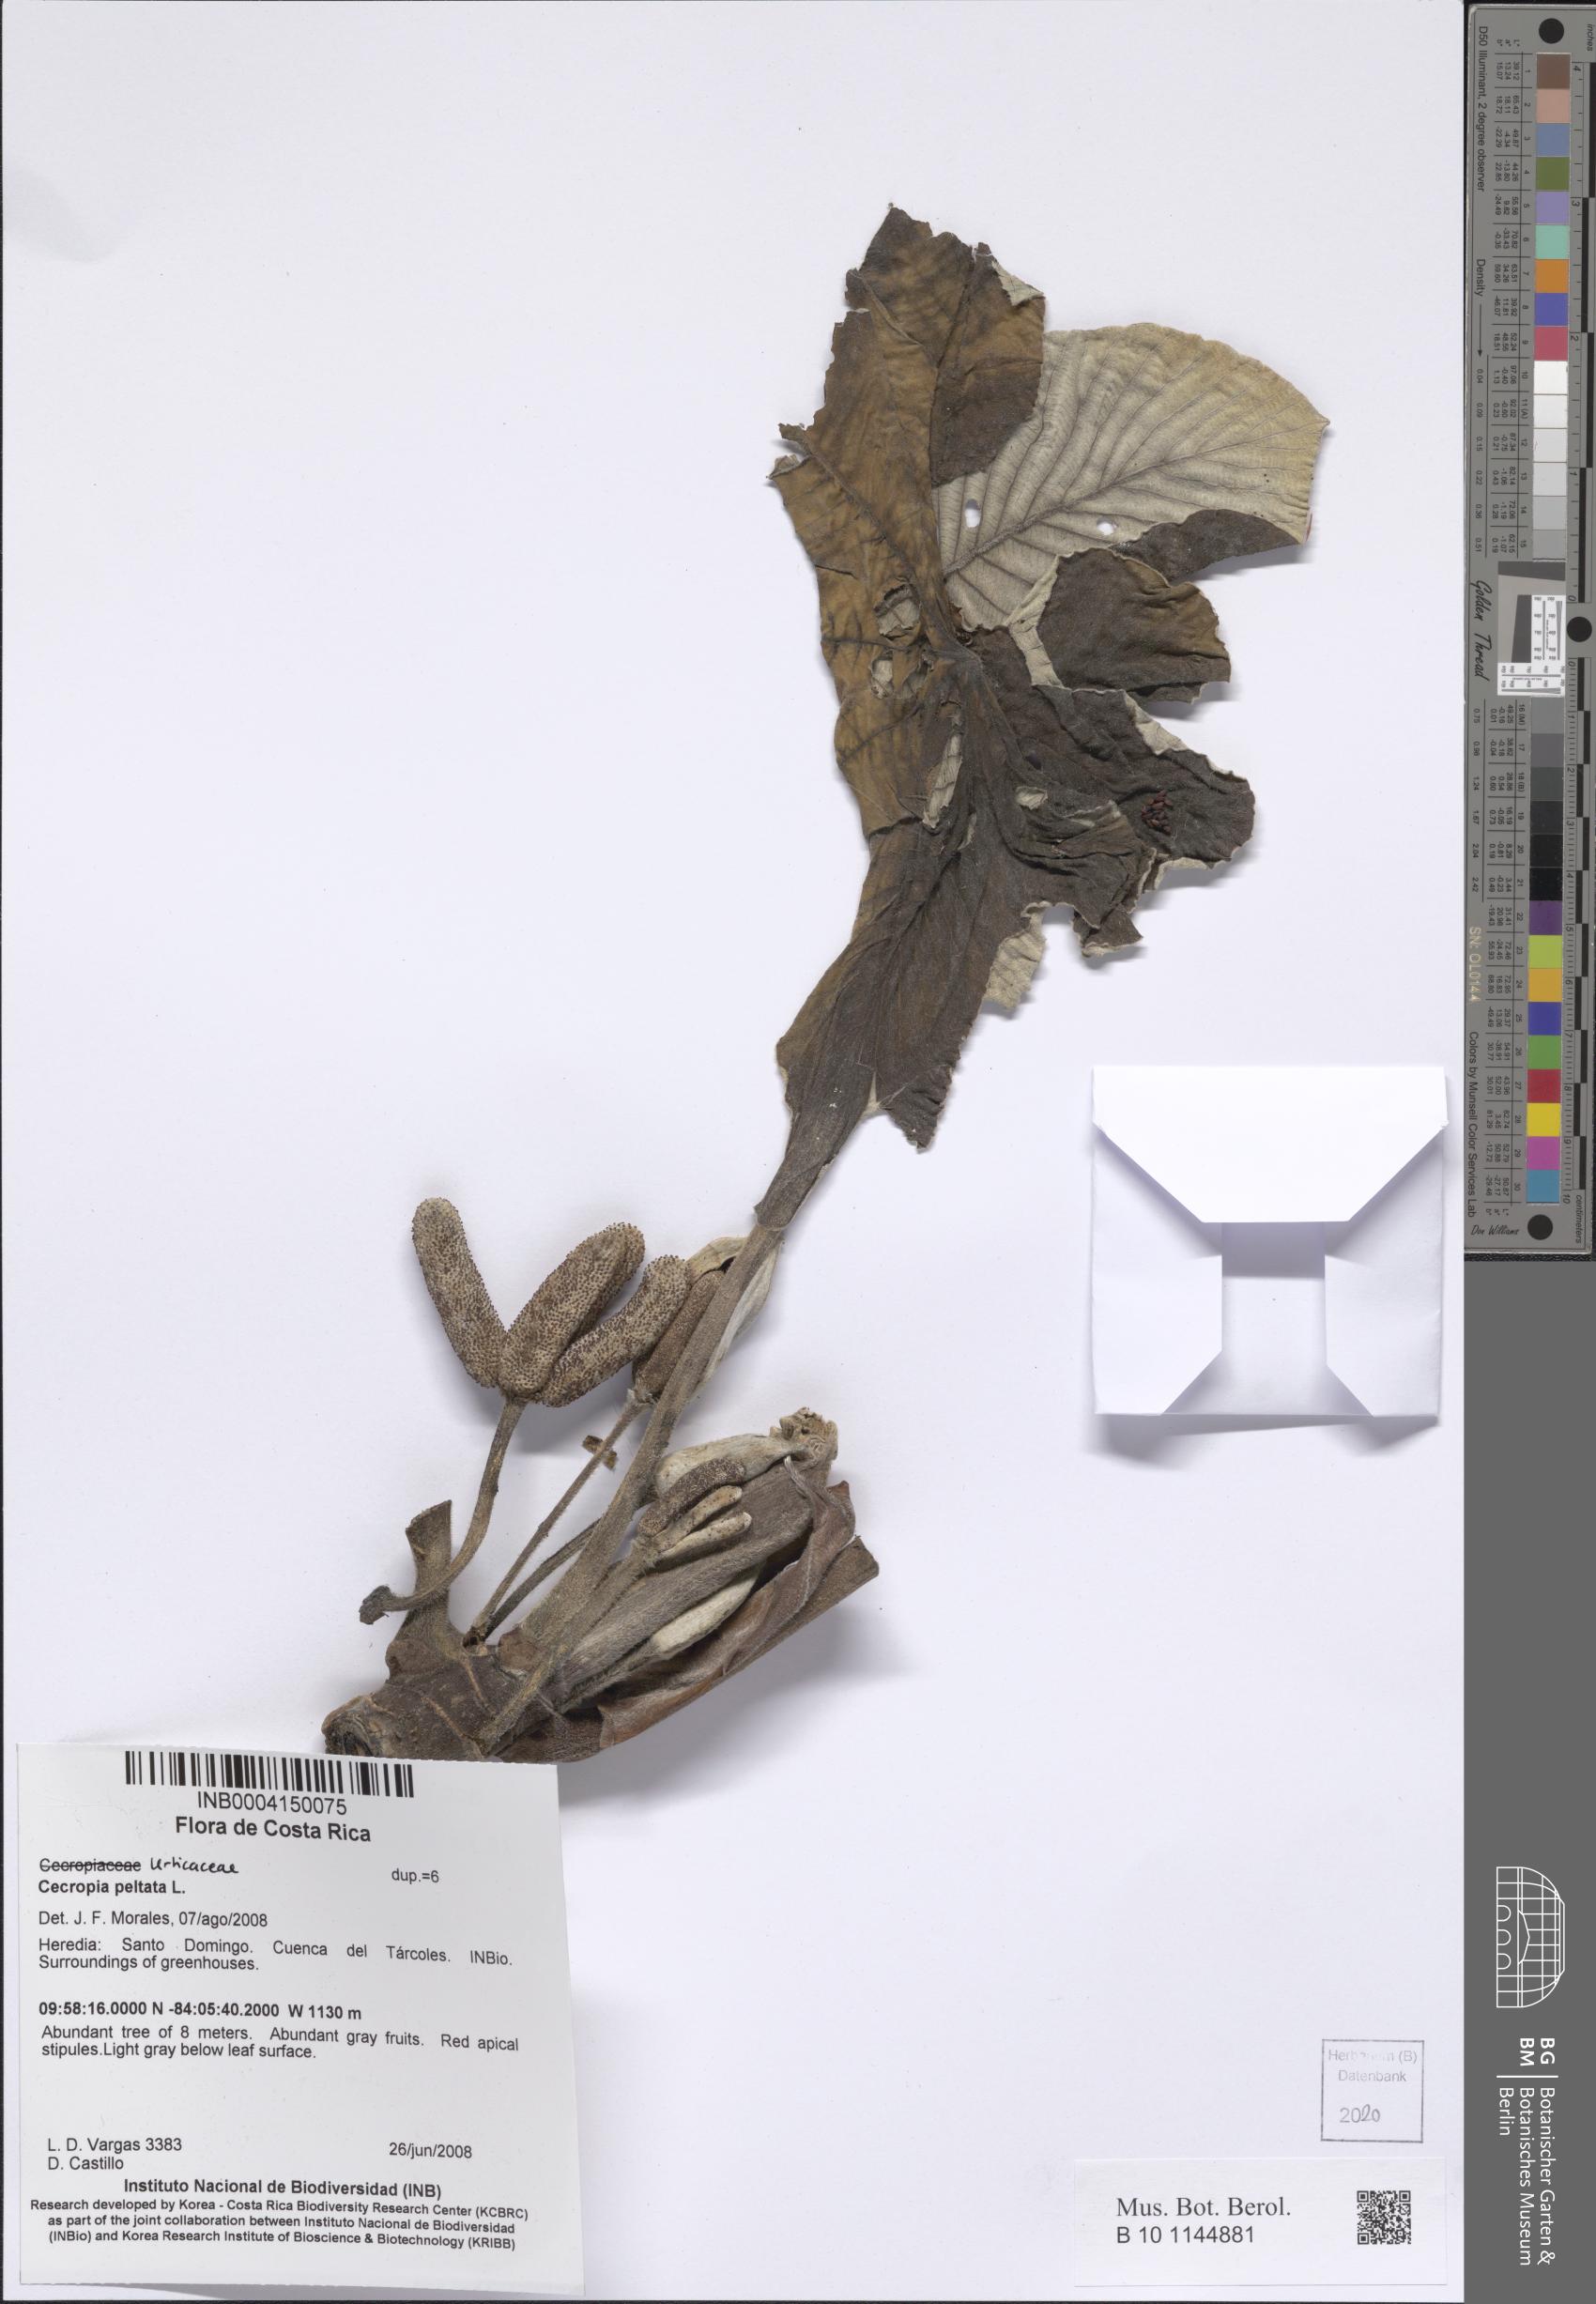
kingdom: Plantae
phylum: Tracheophyta
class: Magnoliopsida
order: Rosales
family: Urticaceae
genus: Cecropia
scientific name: Cecropia peltata
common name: Trumpet-tree
